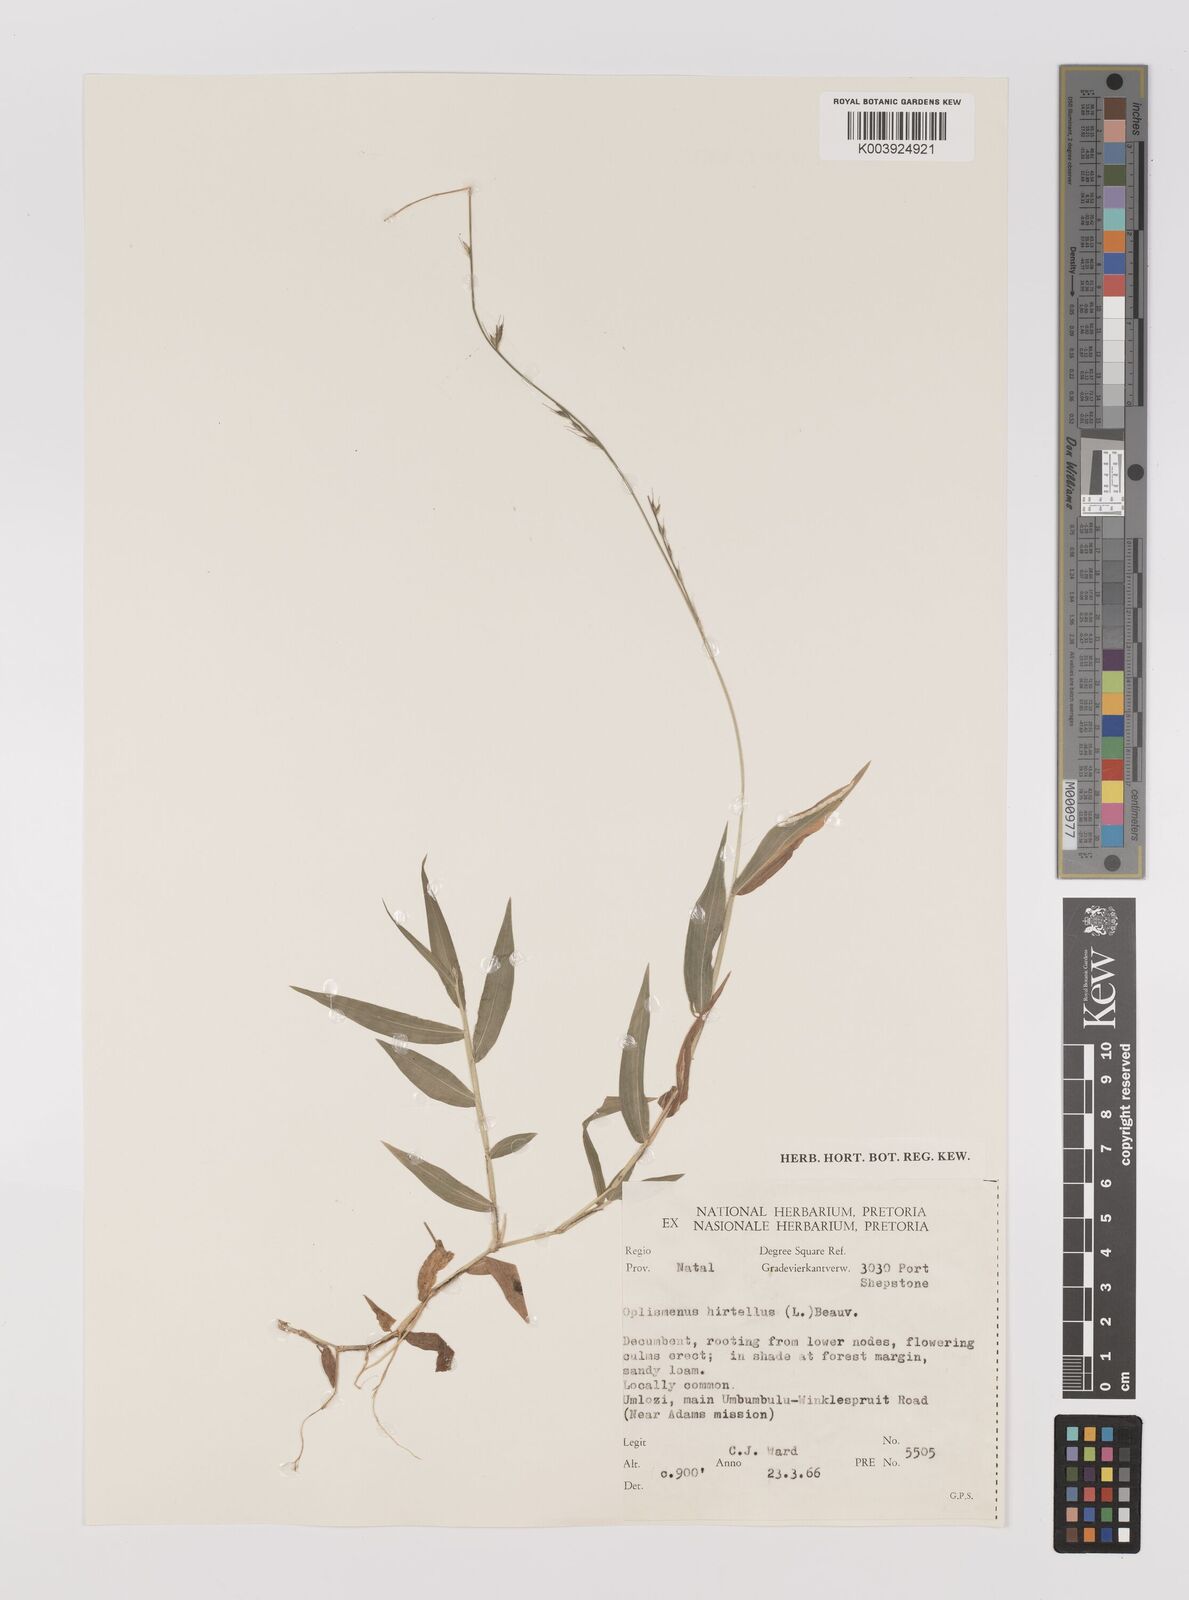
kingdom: Plantae
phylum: Tracheophyta
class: Liliopsida
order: Poales
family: Poaceae
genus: Oplismenus
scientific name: Oplismenus compositus
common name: Running mountain grass
